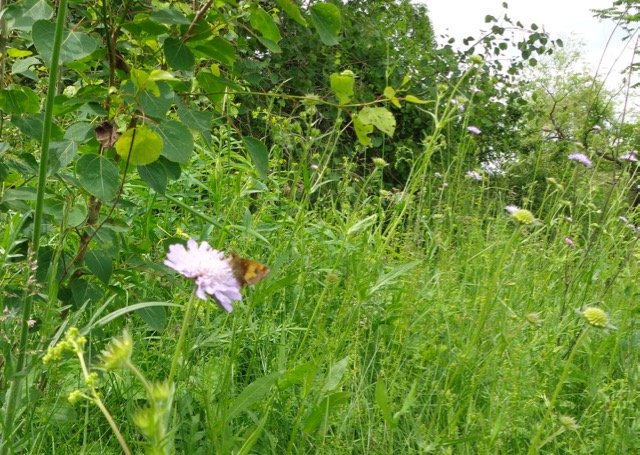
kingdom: Animalia
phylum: Arthropoda
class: Insecta
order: Lepidoptera
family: Hesperiidae
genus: Lon
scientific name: Lon hobomok
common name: Hobomok Skipper
